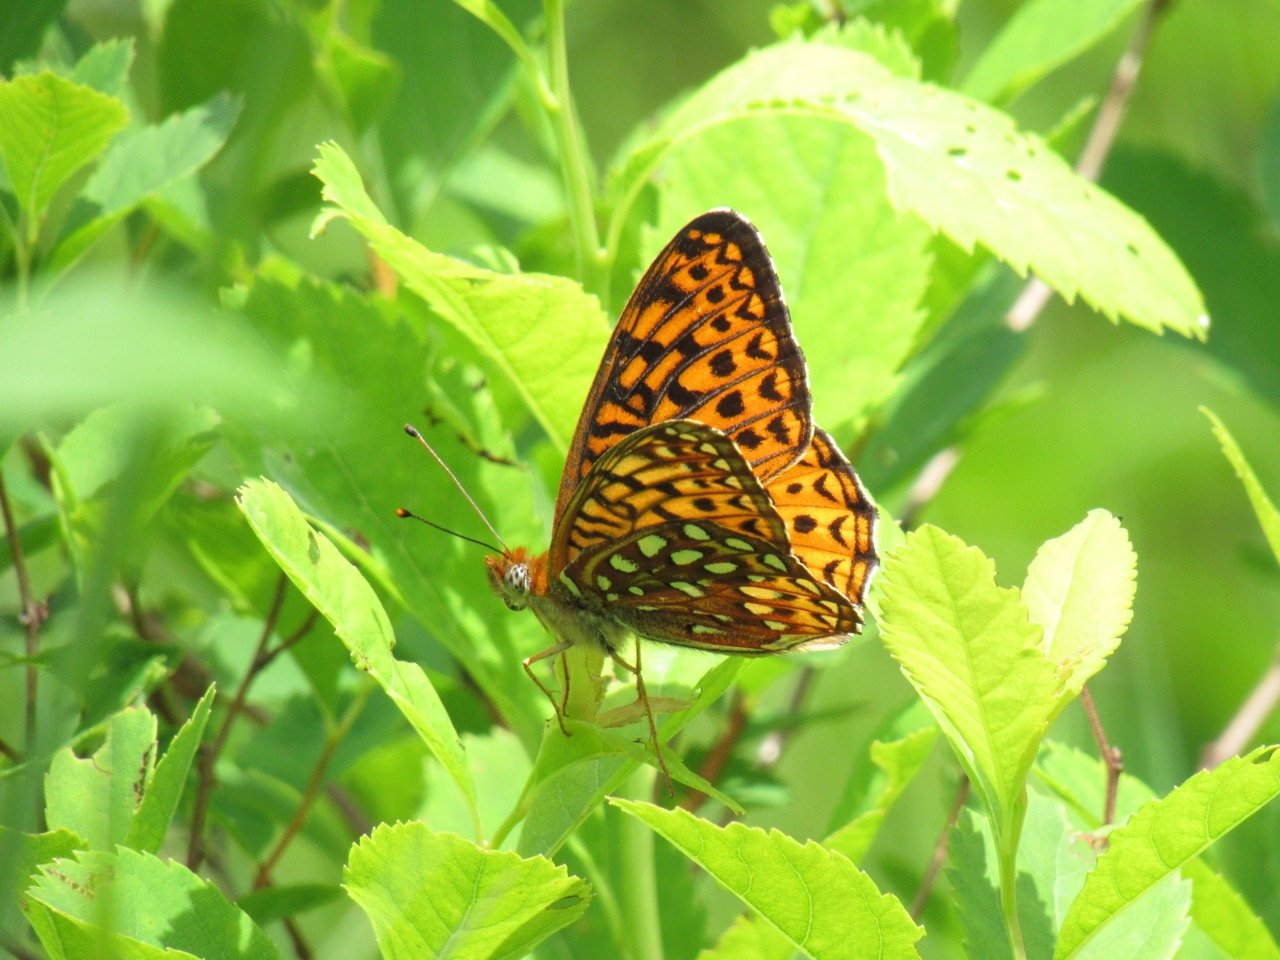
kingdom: Animalia
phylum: Arthropoda
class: Insecta
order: Lepidoptera
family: Nymphalidae
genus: Speyeria
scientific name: Speyeria atlantis
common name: Atlantis Fritillary
